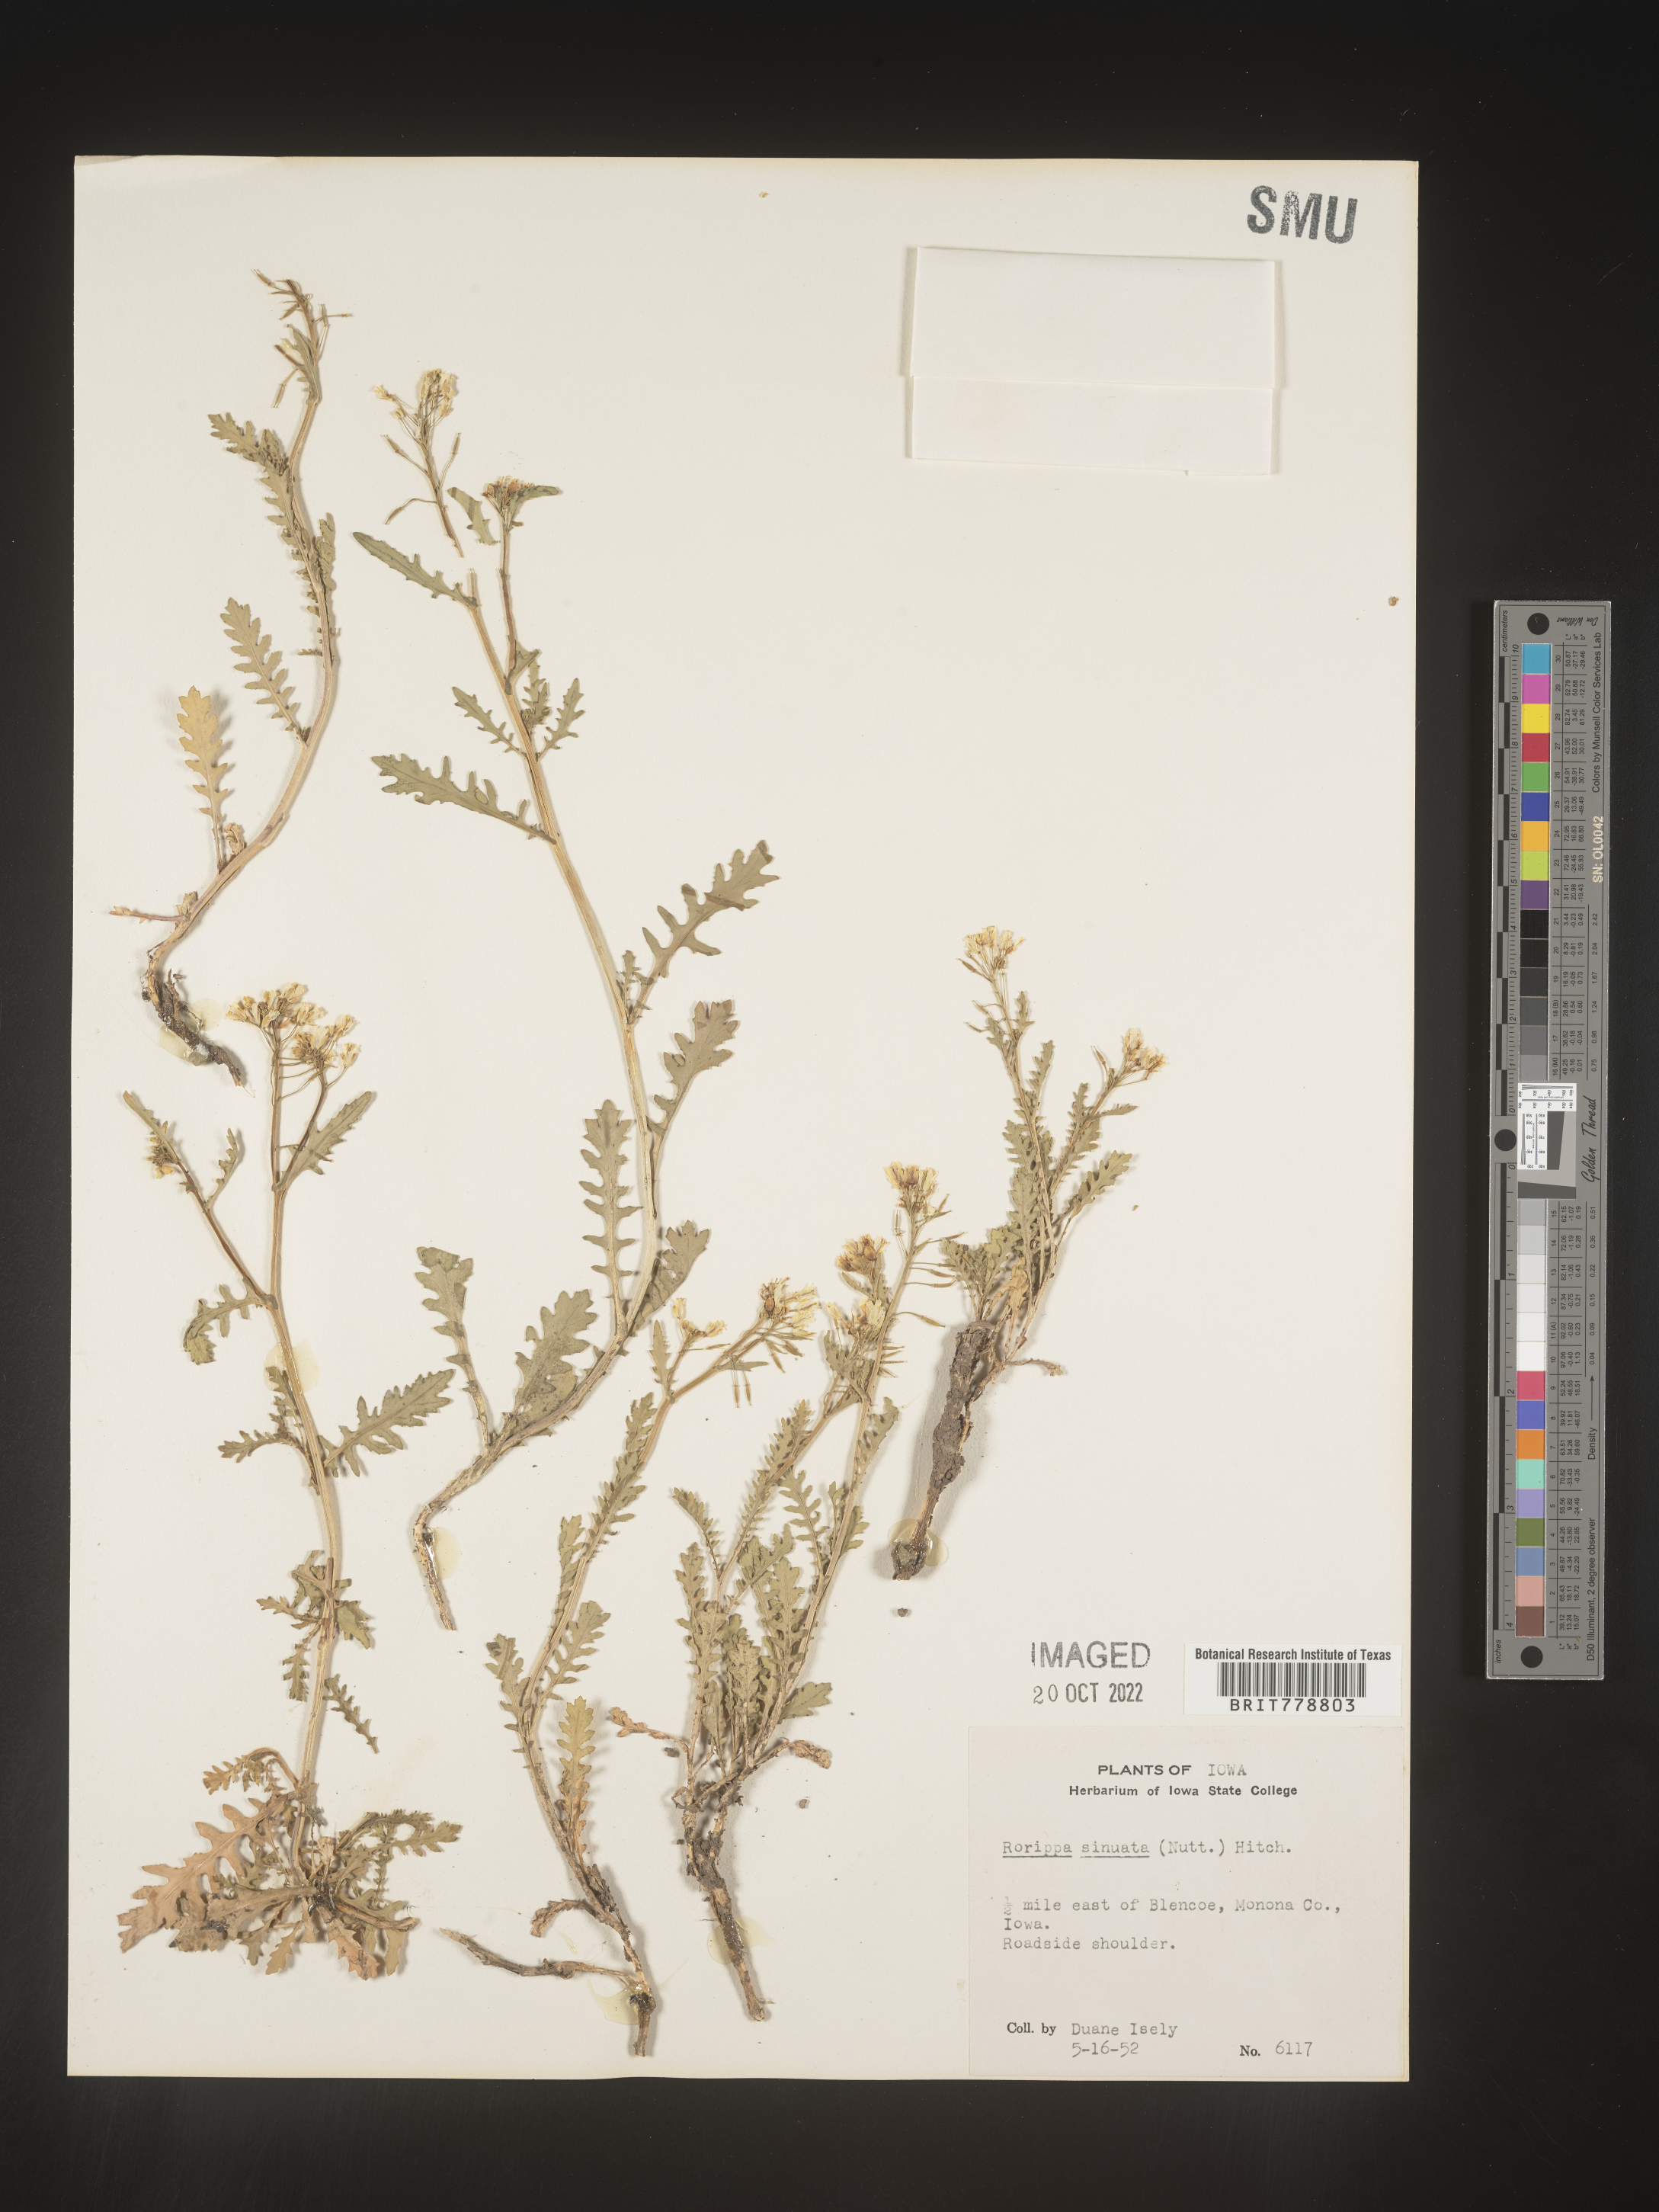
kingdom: Plantae
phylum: Tracheophyta
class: Magnoliopsida
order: Brassicales
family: Brassicaceae
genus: Rorippa
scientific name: Rorippa sinuata
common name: Spread yellow cress
